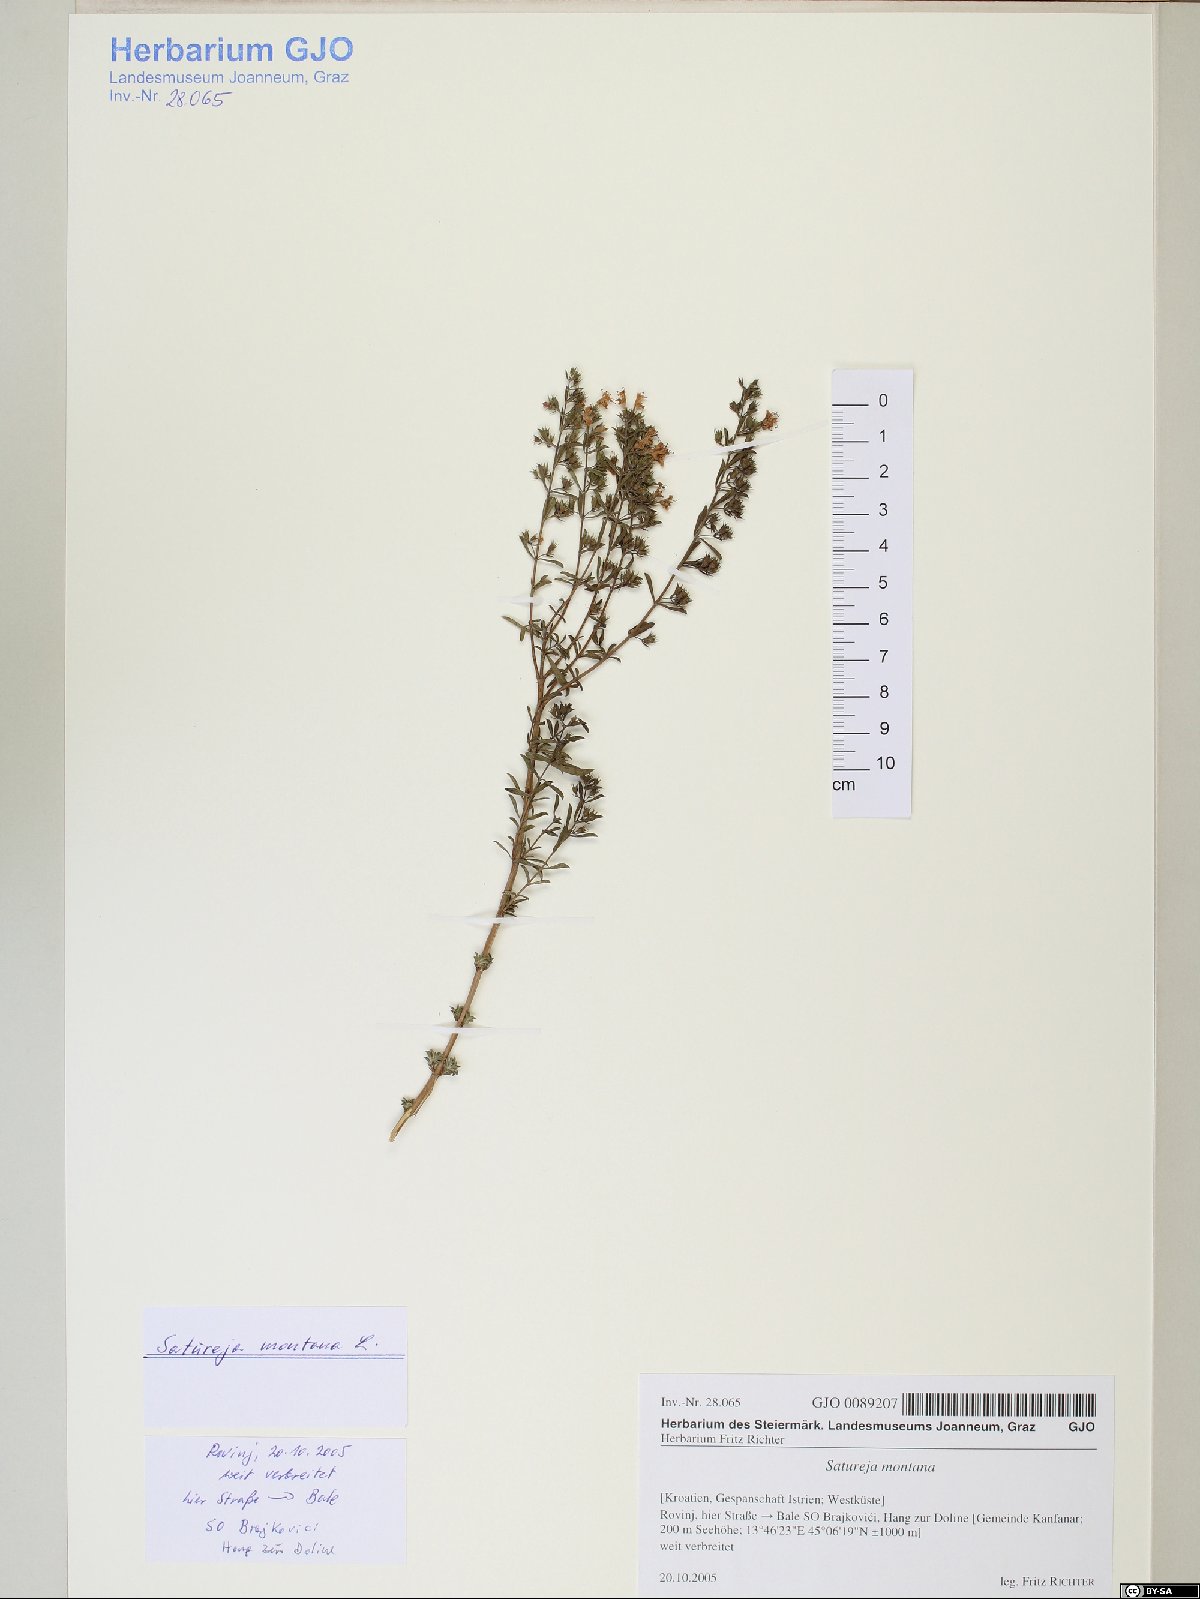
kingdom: Plantae
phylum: Tracheophyta
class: Magnoliopsida
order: Lamiales
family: Lamiaceae
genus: Satureja
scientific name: Satureja montana
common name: Winter savory
